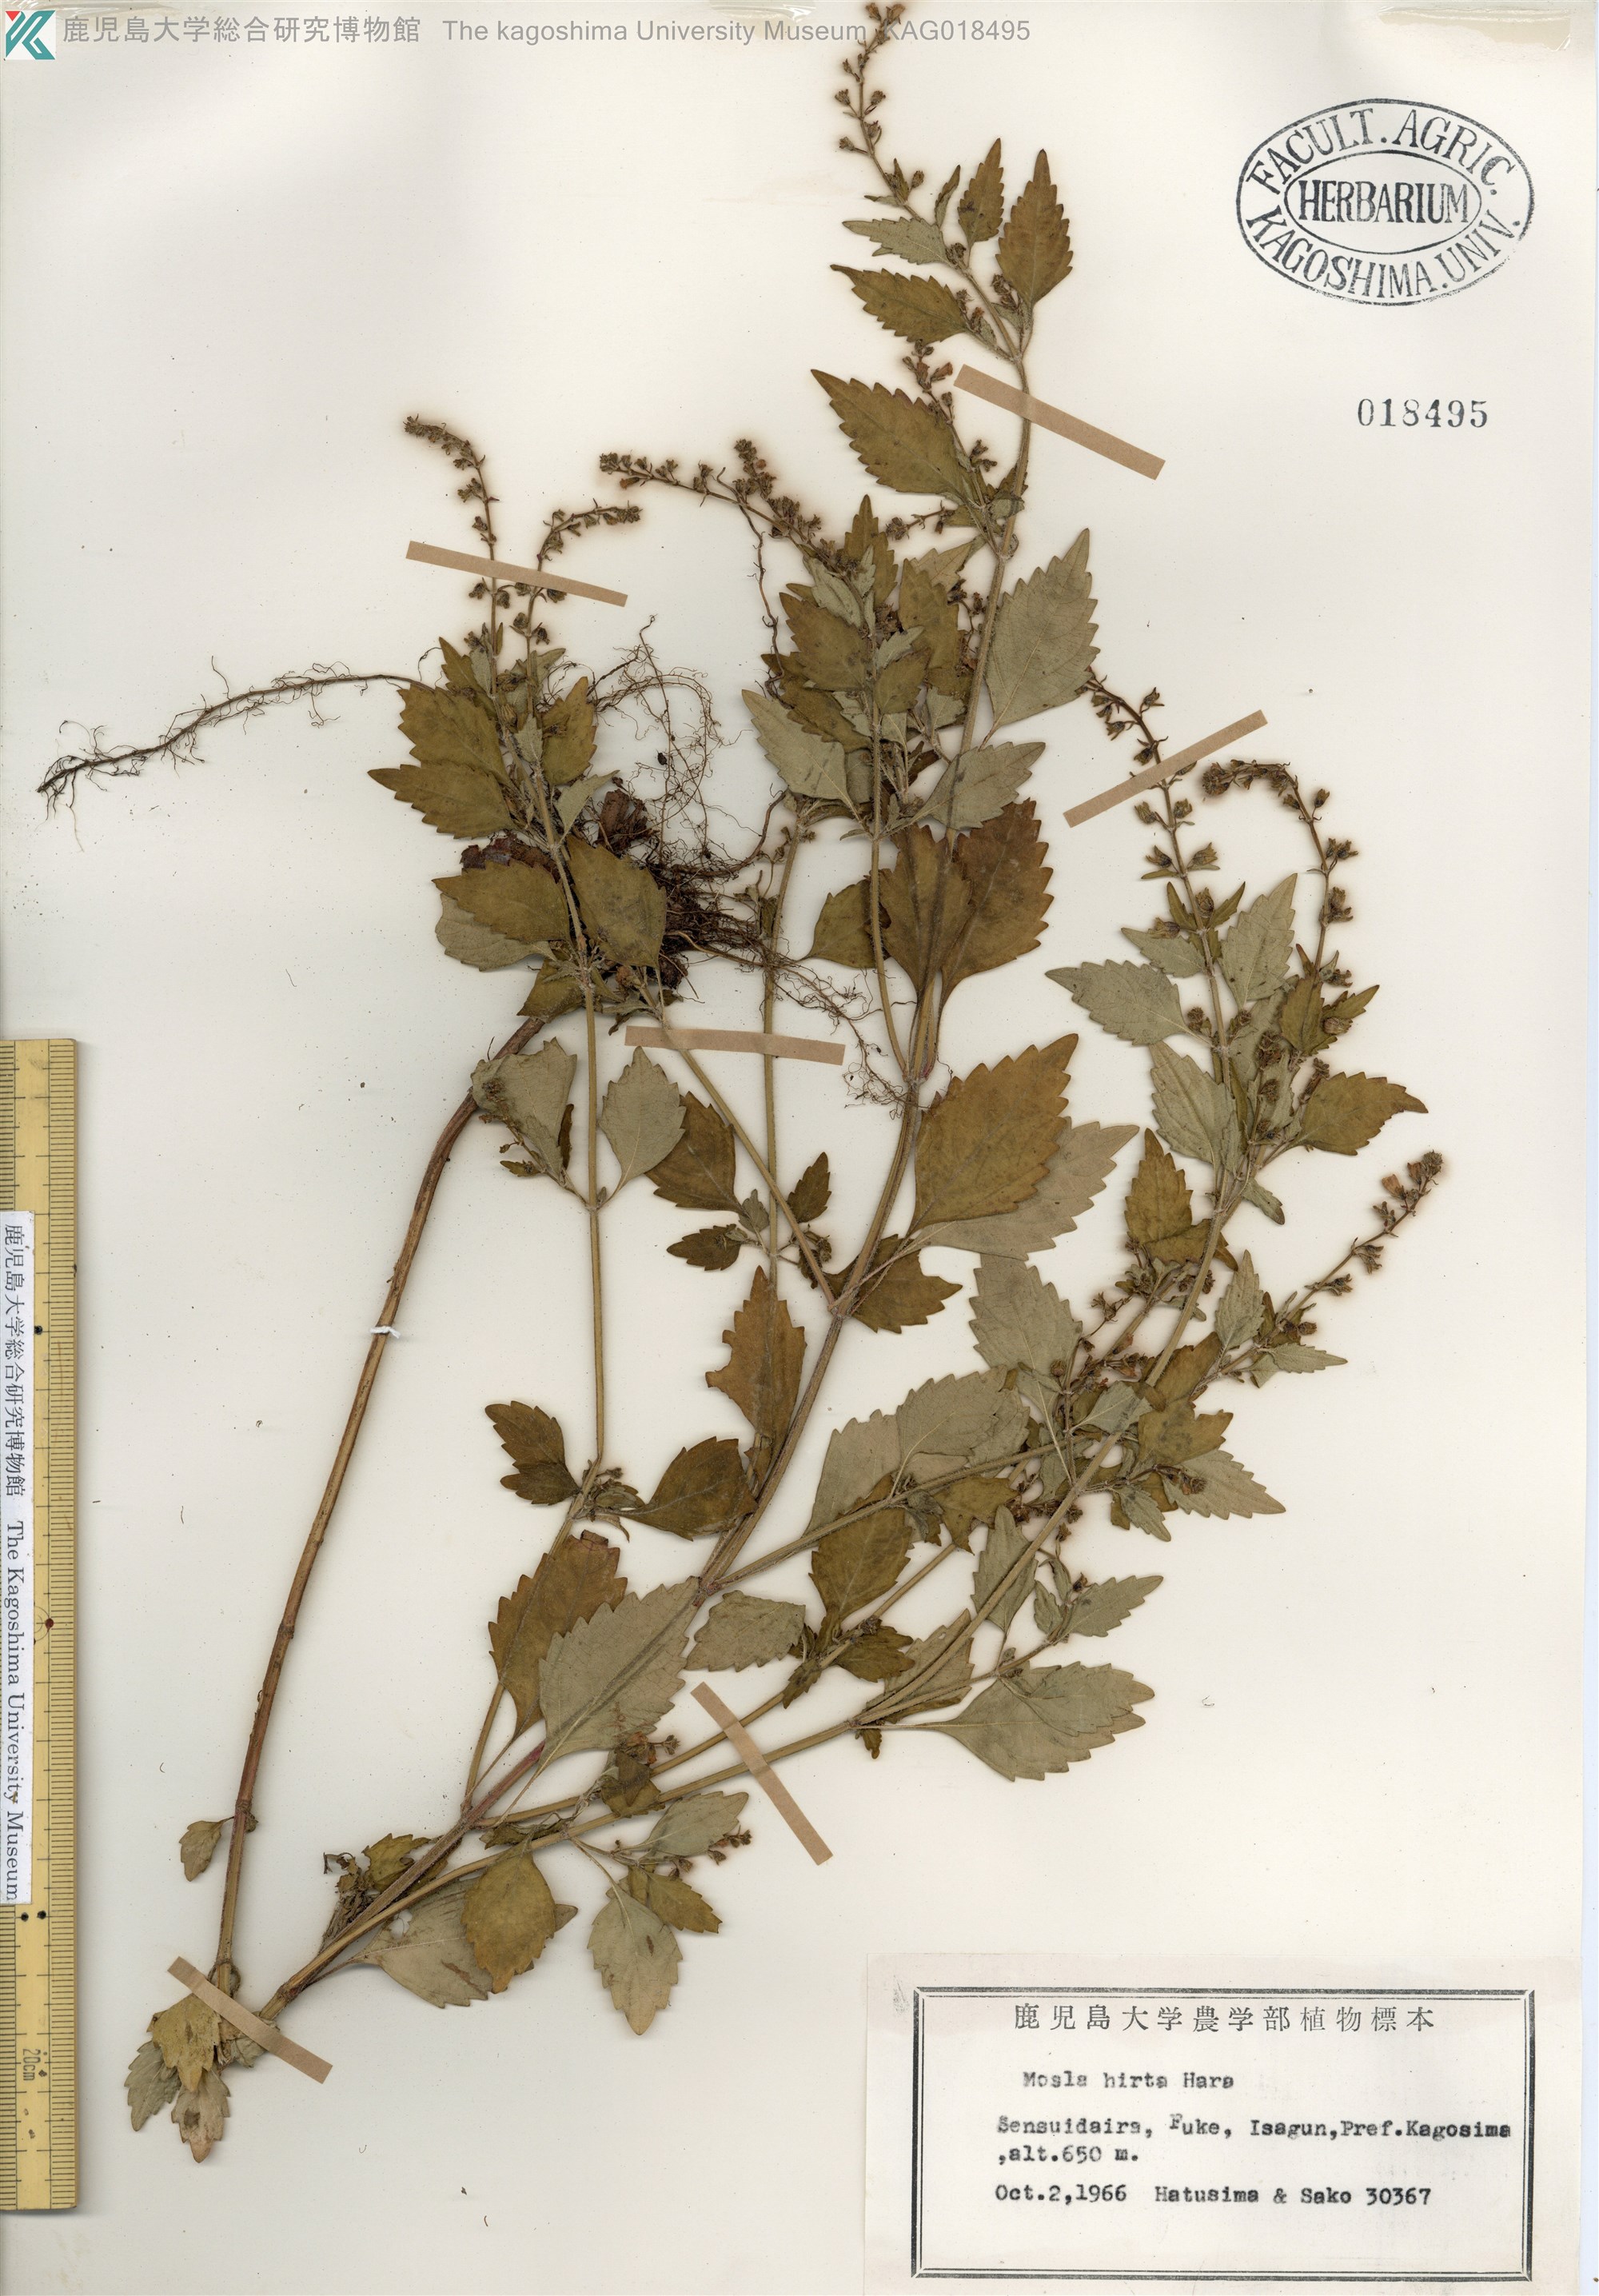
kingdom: Plantae
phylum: Tracheophyta
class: Magnoliopsida
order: Lamiales
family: Lamiaceae
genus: Mosla
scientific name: Mosla dianthera
